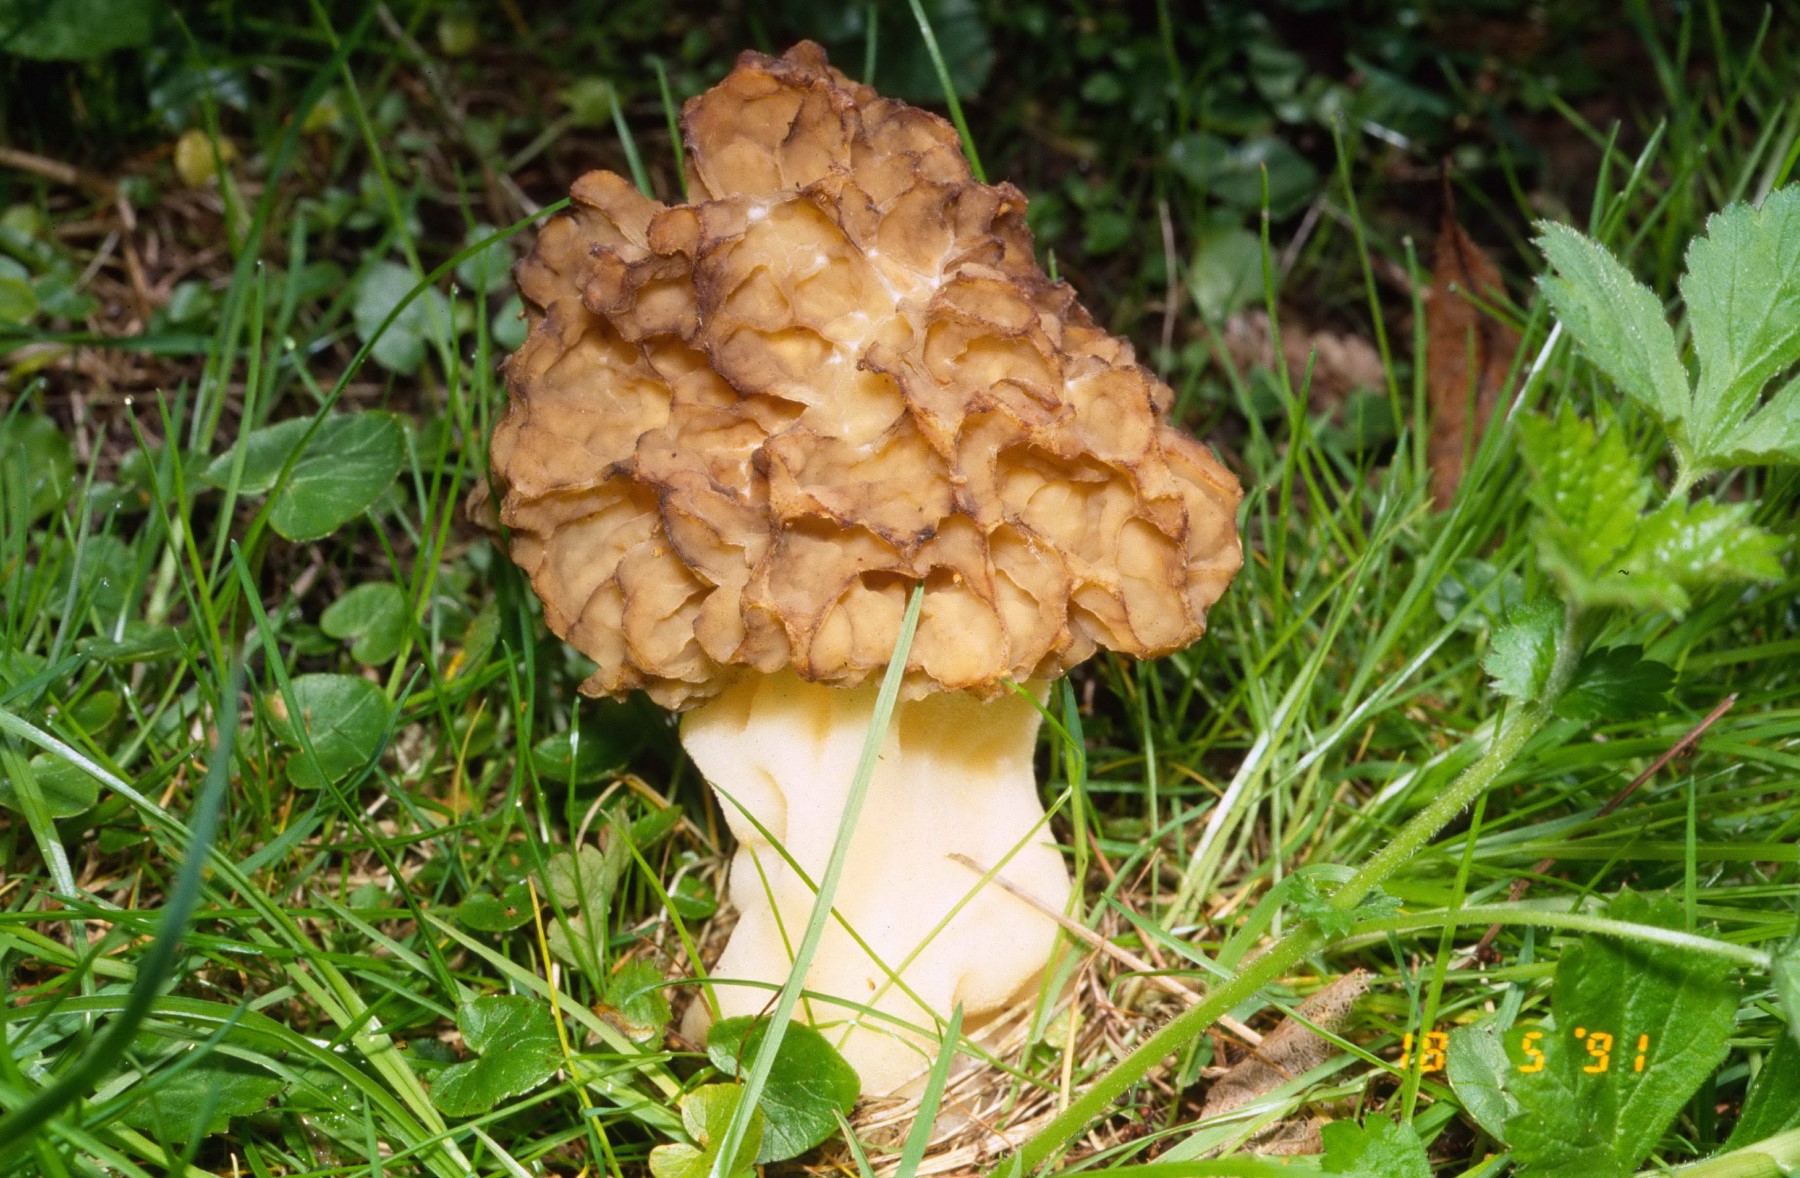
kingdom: Fungi
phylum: Ascomycota
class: Pezizomycetes
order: Pezizales
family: Morchellaceae
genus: Morchella
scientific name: Morchella esculenta
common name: spiselig morkel
